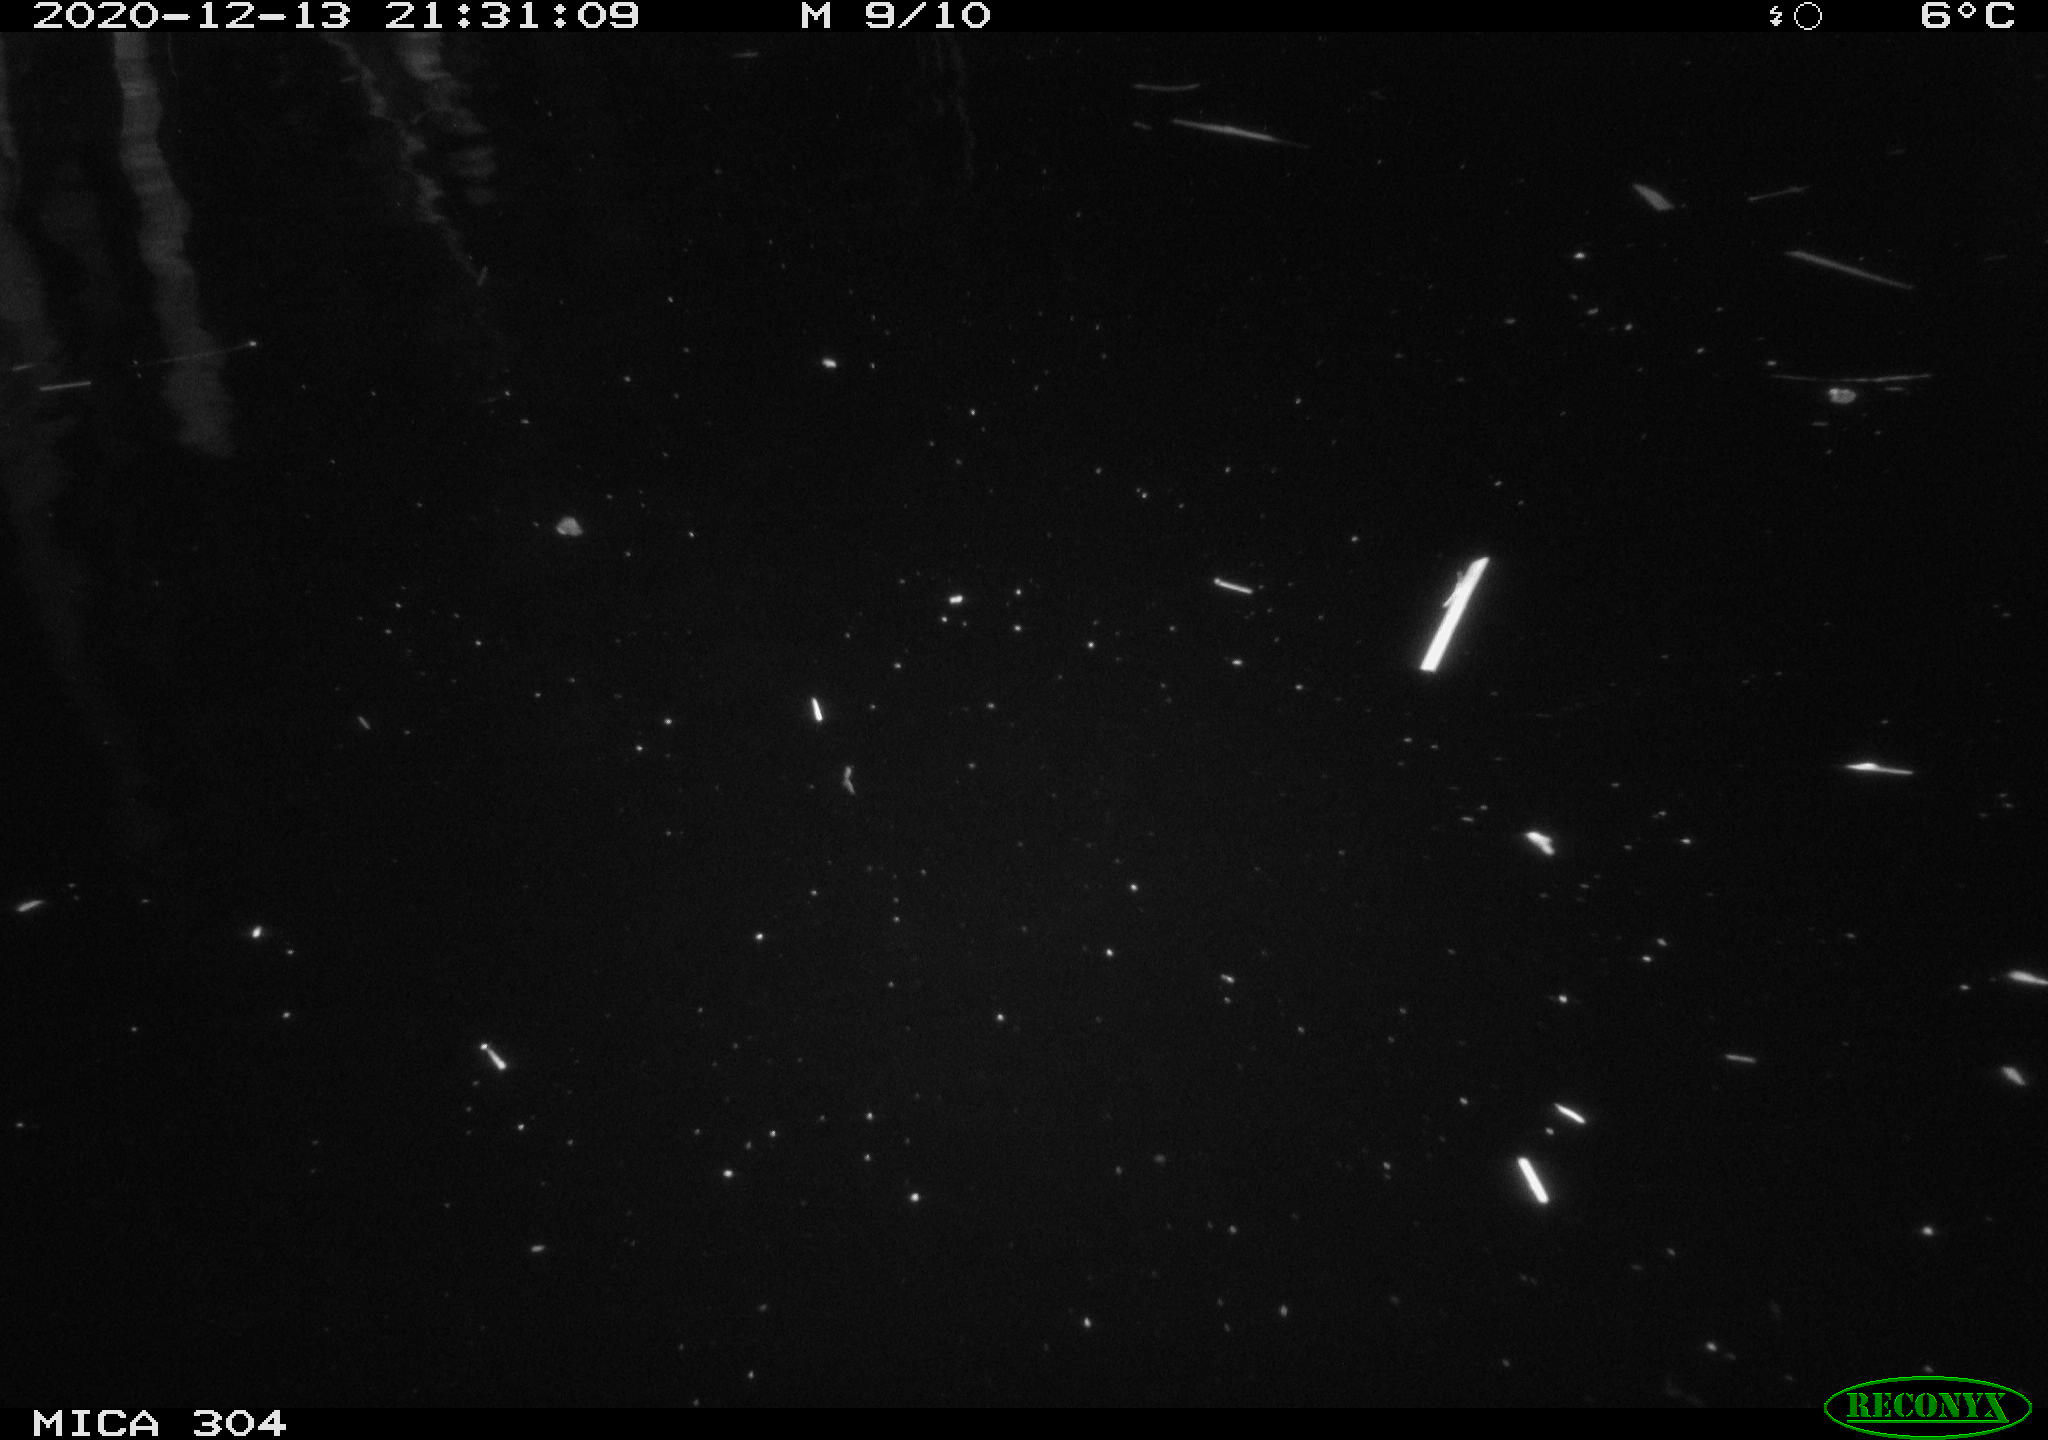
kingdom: Animalia
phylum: Chordata
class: Mammalia
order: Rodentia
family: Cricetidae
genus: Ondatra
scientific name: Ondatra zibethicus
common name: Muskrat
